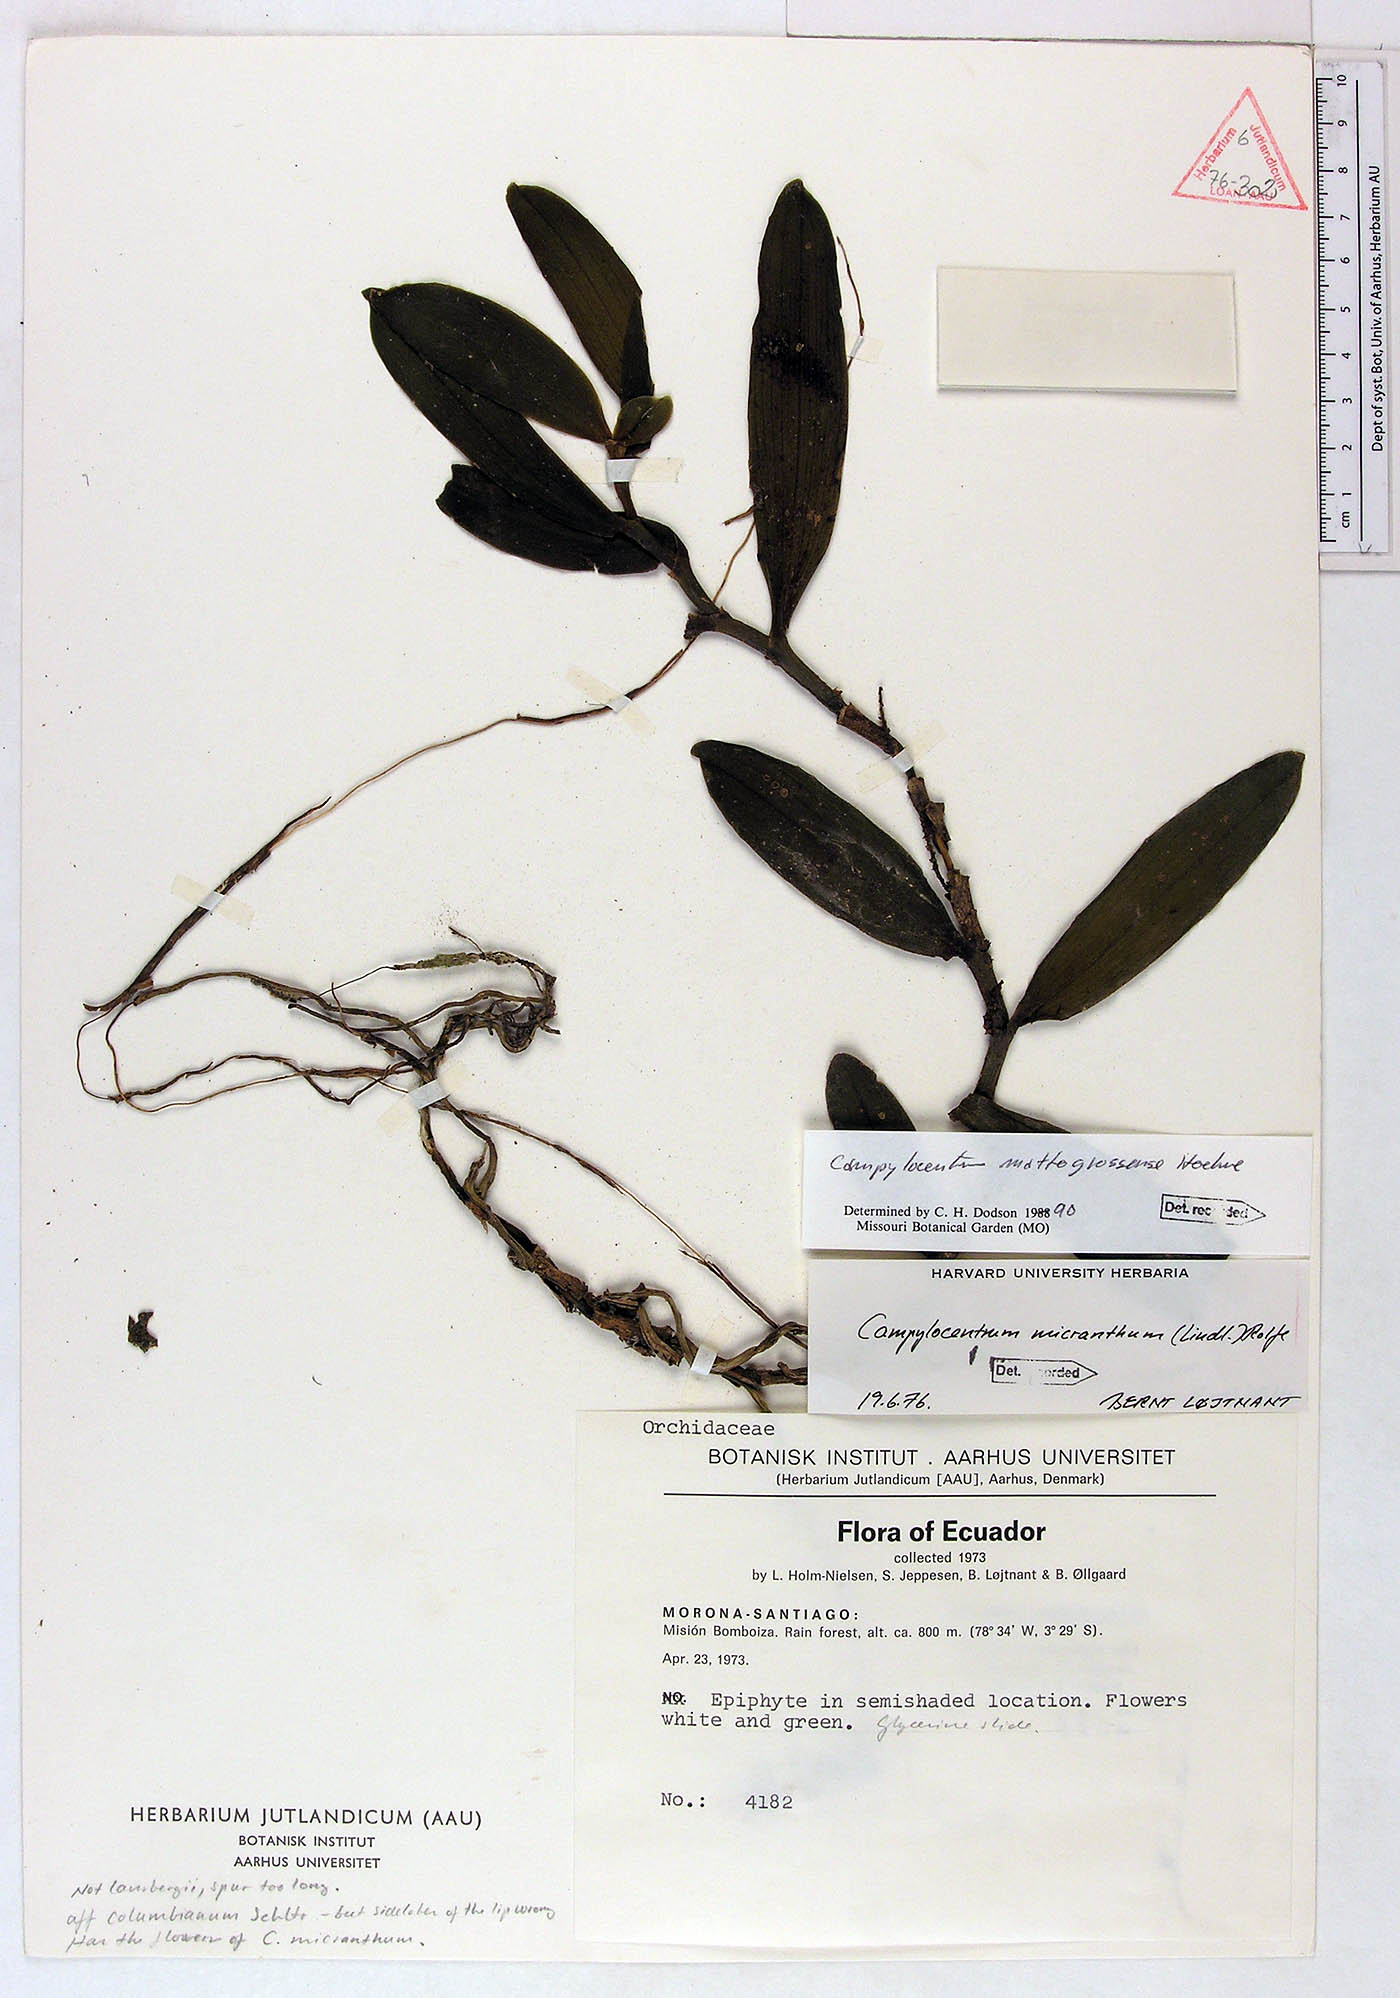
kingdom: Plantae
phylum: Tracheophyta
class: Liliopsida
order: Asparagales
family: Orchidaceae
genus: Campylocentrum
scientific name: Campylocentrum mattogrossense
